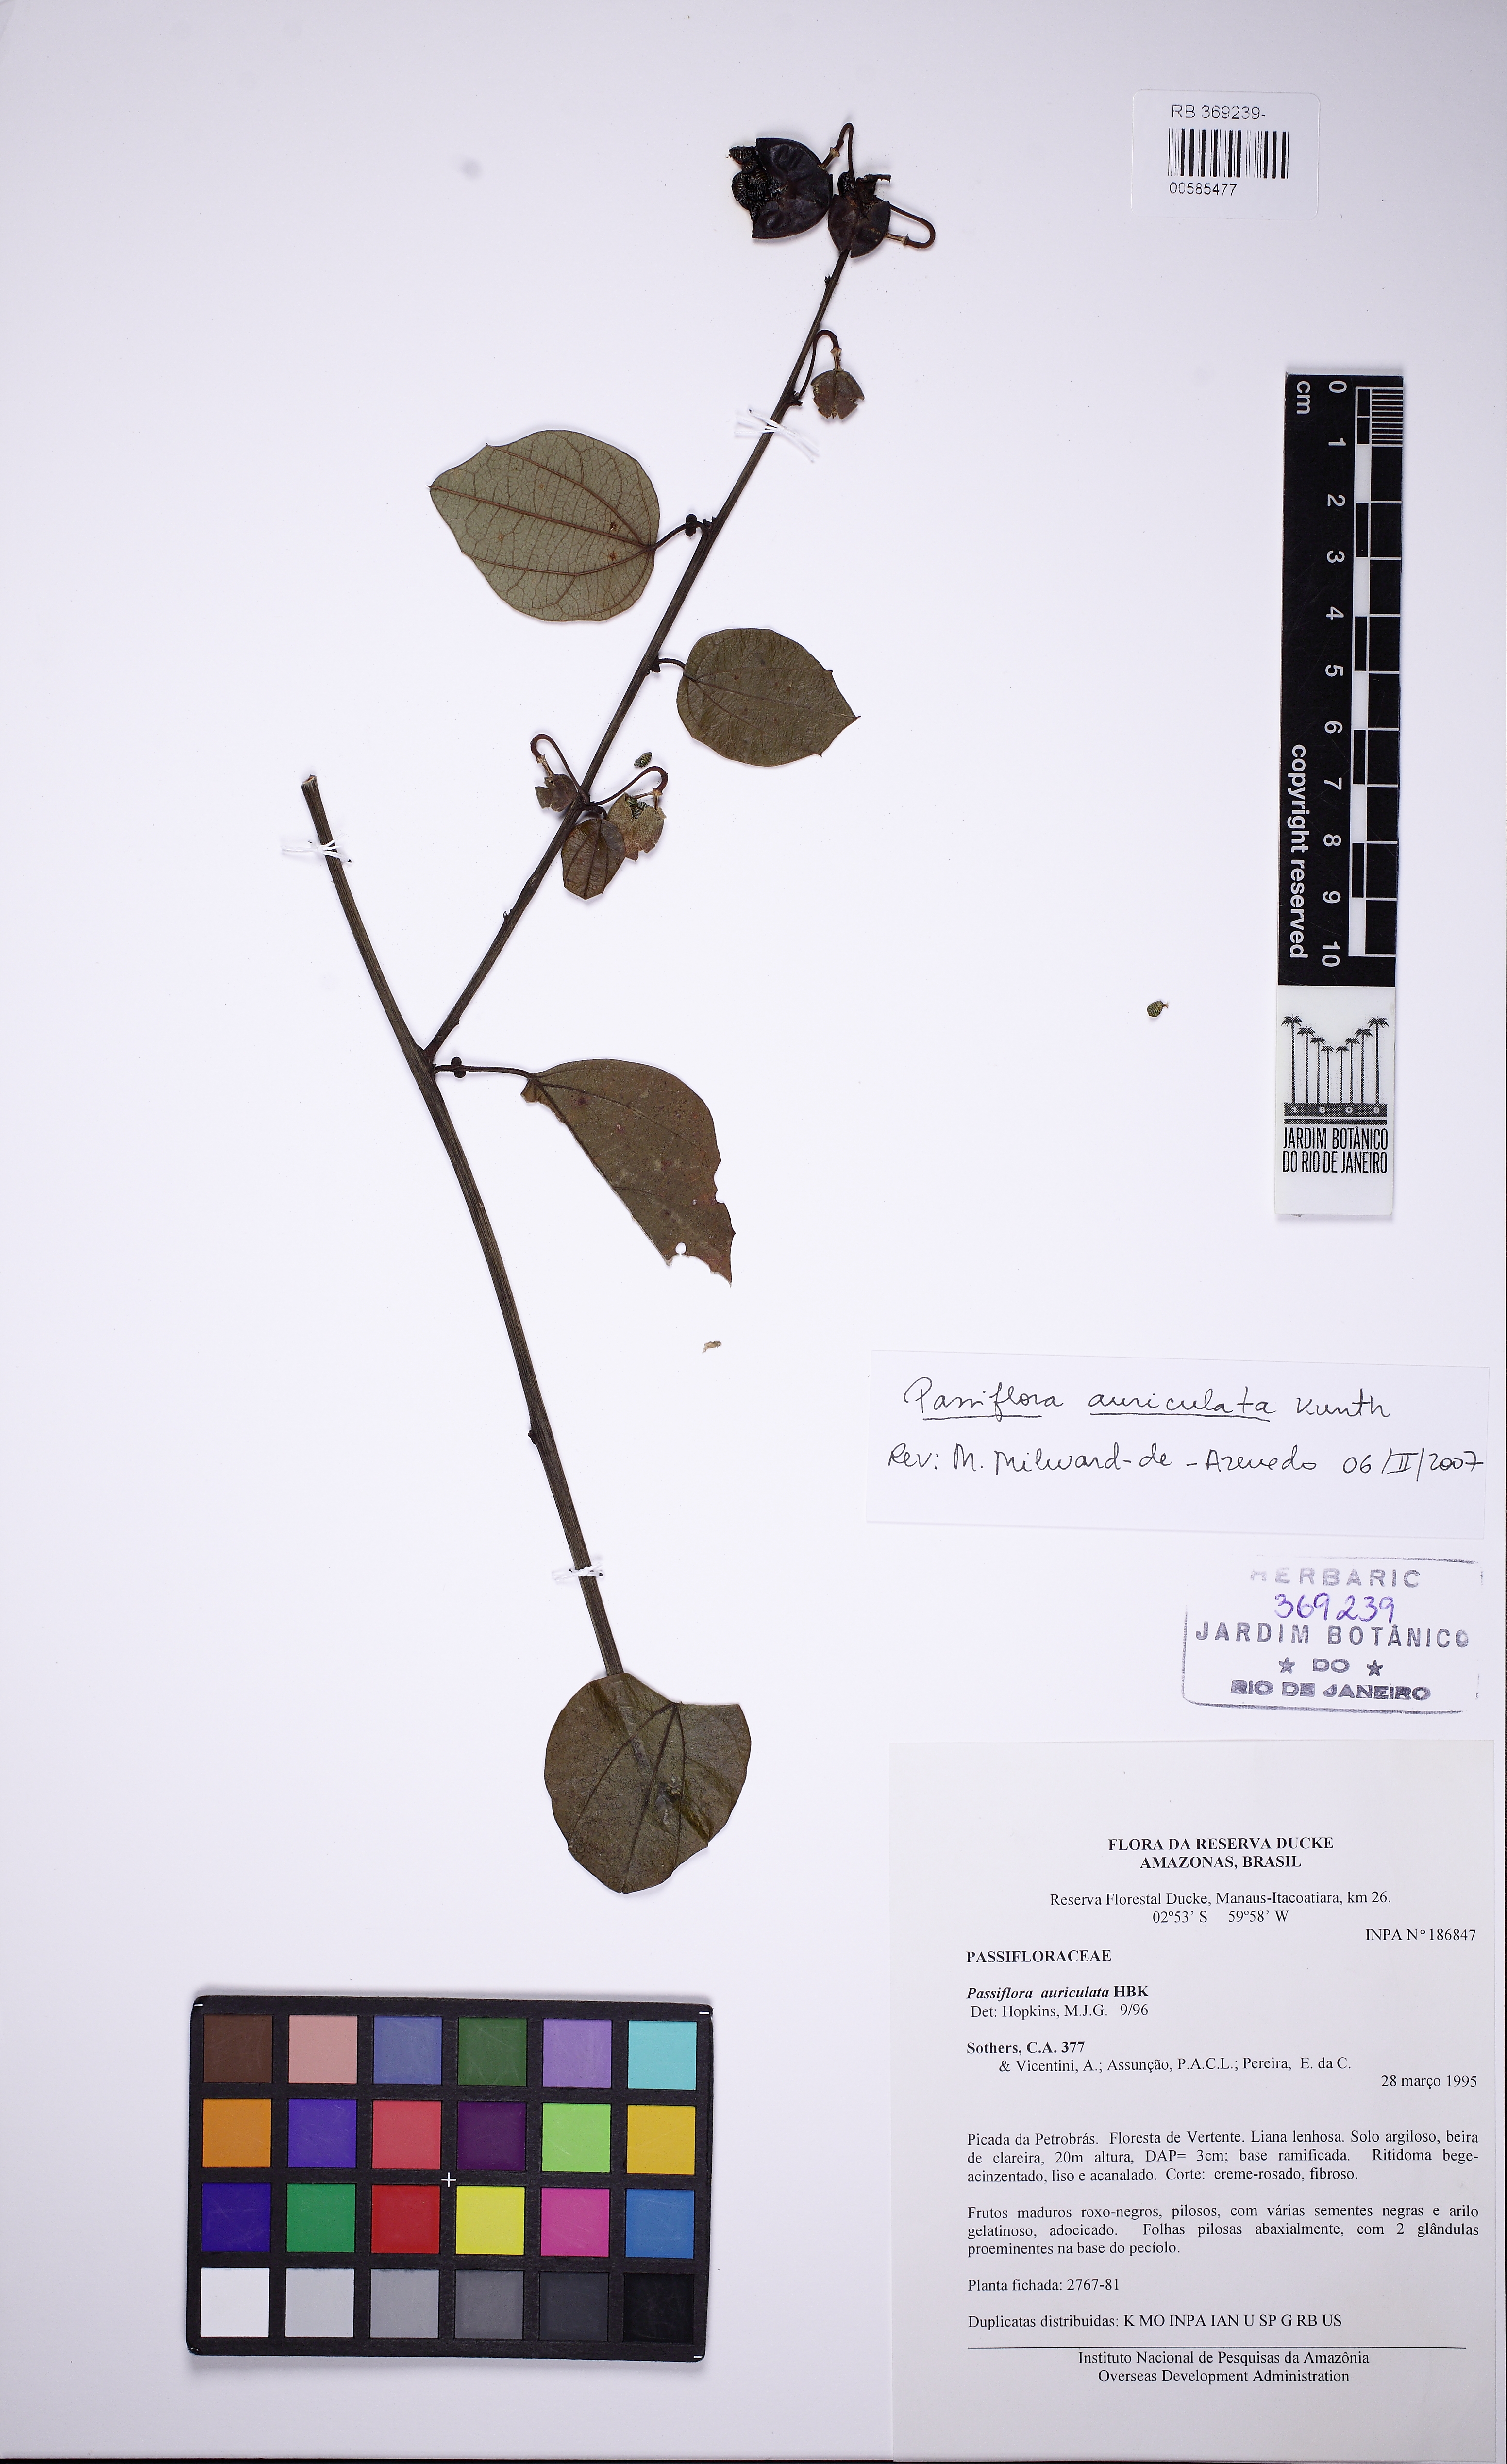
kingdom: Plantae
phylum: Tracheophyta
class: Magnoliopsida
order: Malpighiales
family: Passifloraceae
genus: Passiflora
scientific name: Passiflora auriculata
